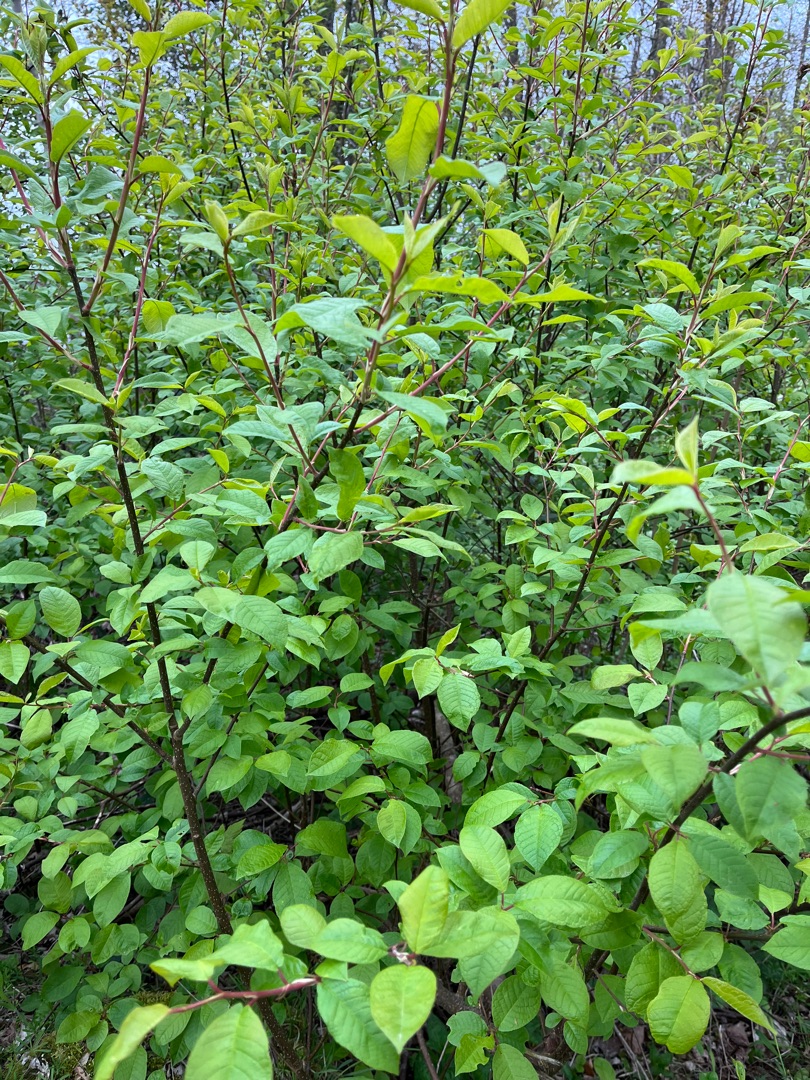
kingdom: Plantae
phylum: Tracheophyta
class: Magnoliopsida
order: Rosales
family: Rosaceae
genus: Prunus
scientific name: Prunus padus
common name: Almindelig hæg
